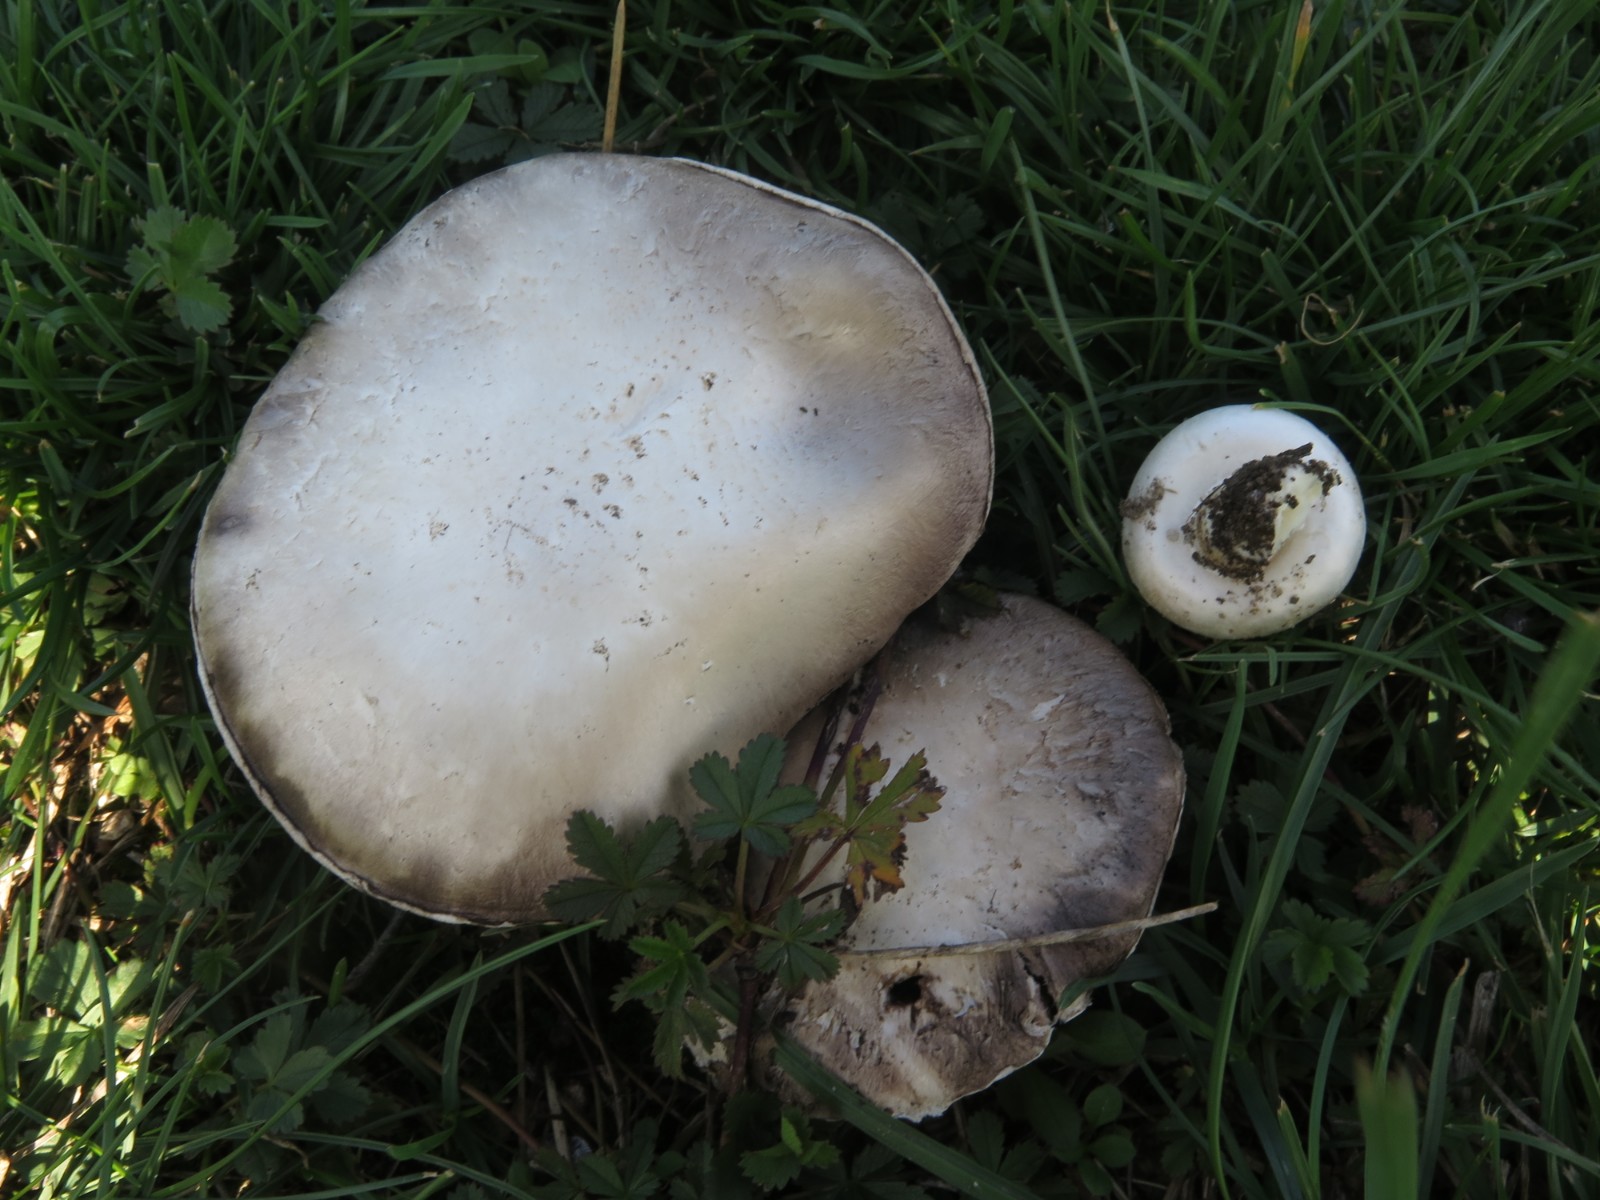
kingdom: Fungi
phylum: Basidiomycota
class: Agaricomycetes
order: Agaricales
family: Agaricaceae
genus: Agaricus
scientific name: Agaricus arvensis
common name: ager-champignon
